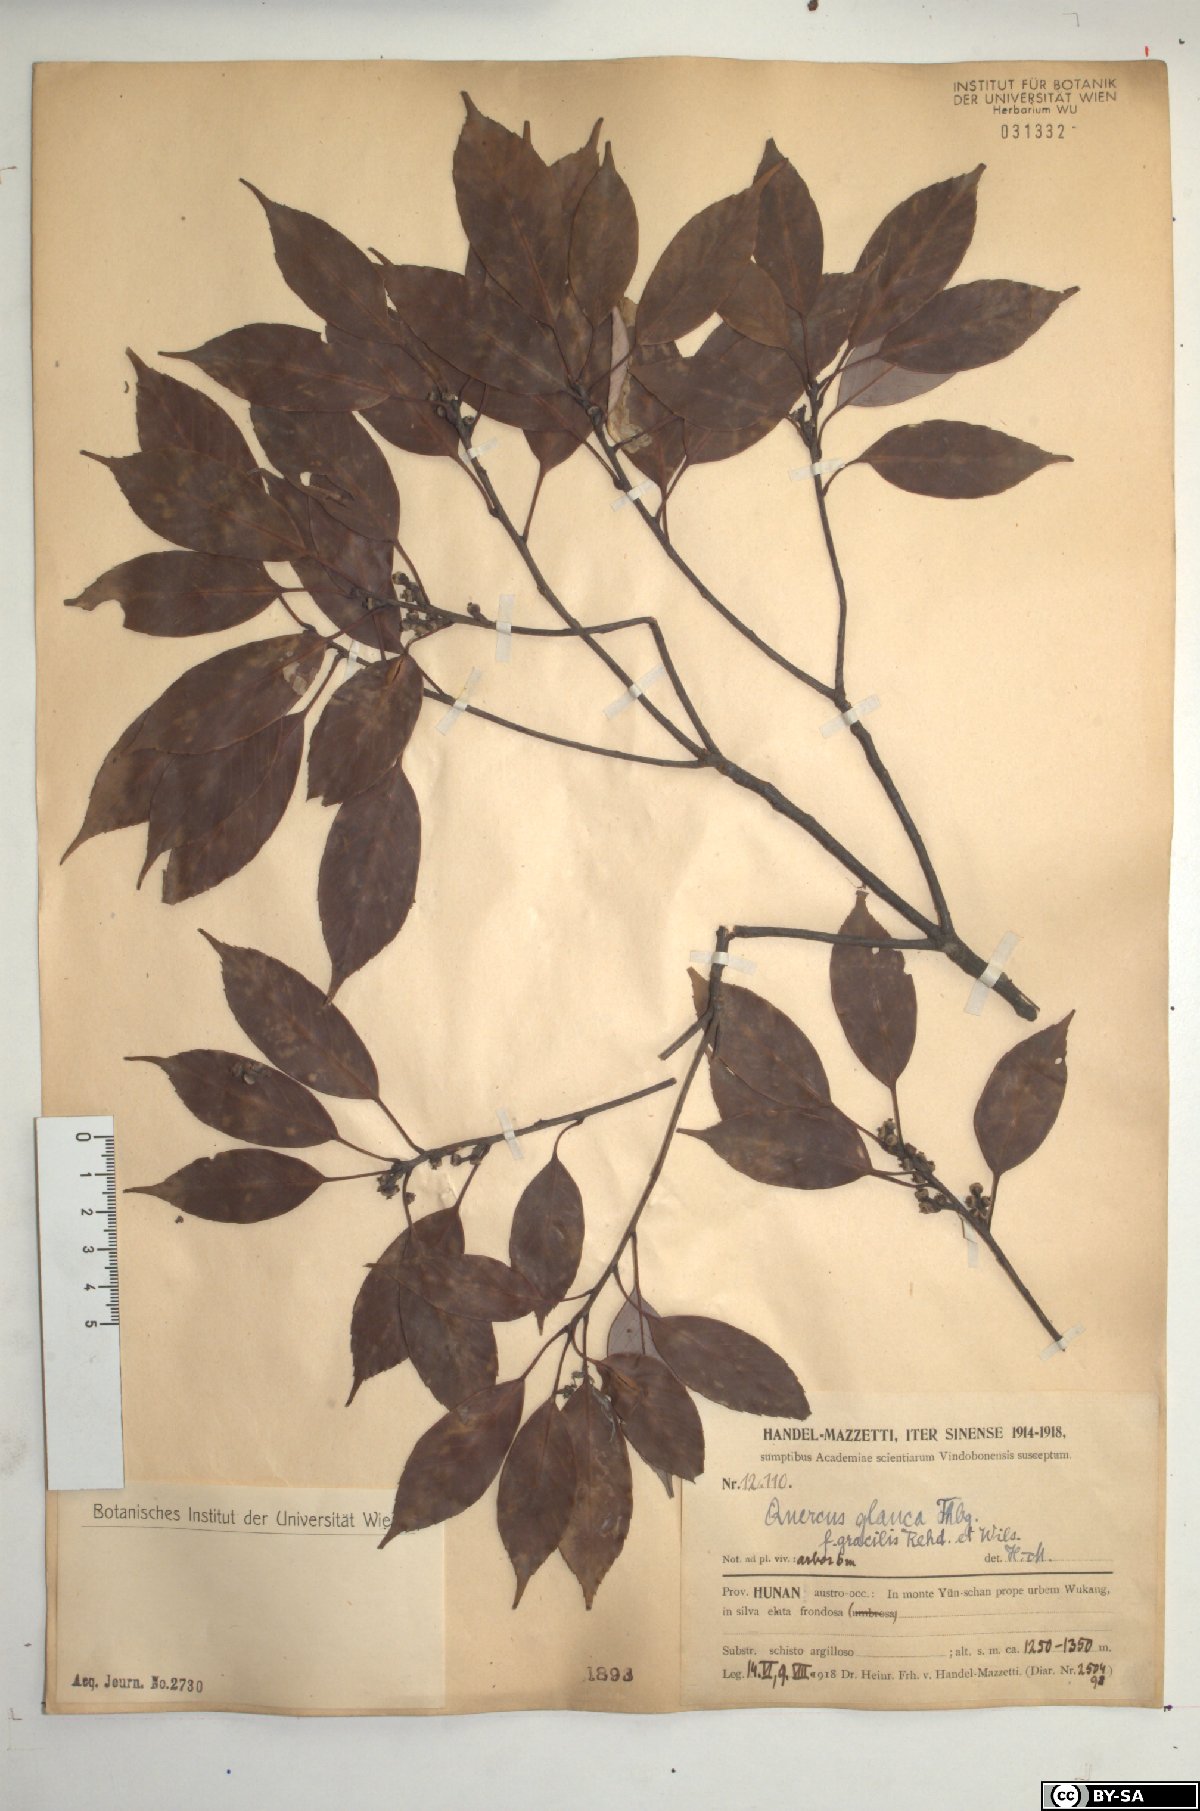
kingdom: Plantae
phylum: Tracheophyta
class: Magnoliopsida
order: Fagales
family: Fagaceae
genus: Quercus
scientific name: Quercus glauca
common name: Ring-cup oak
